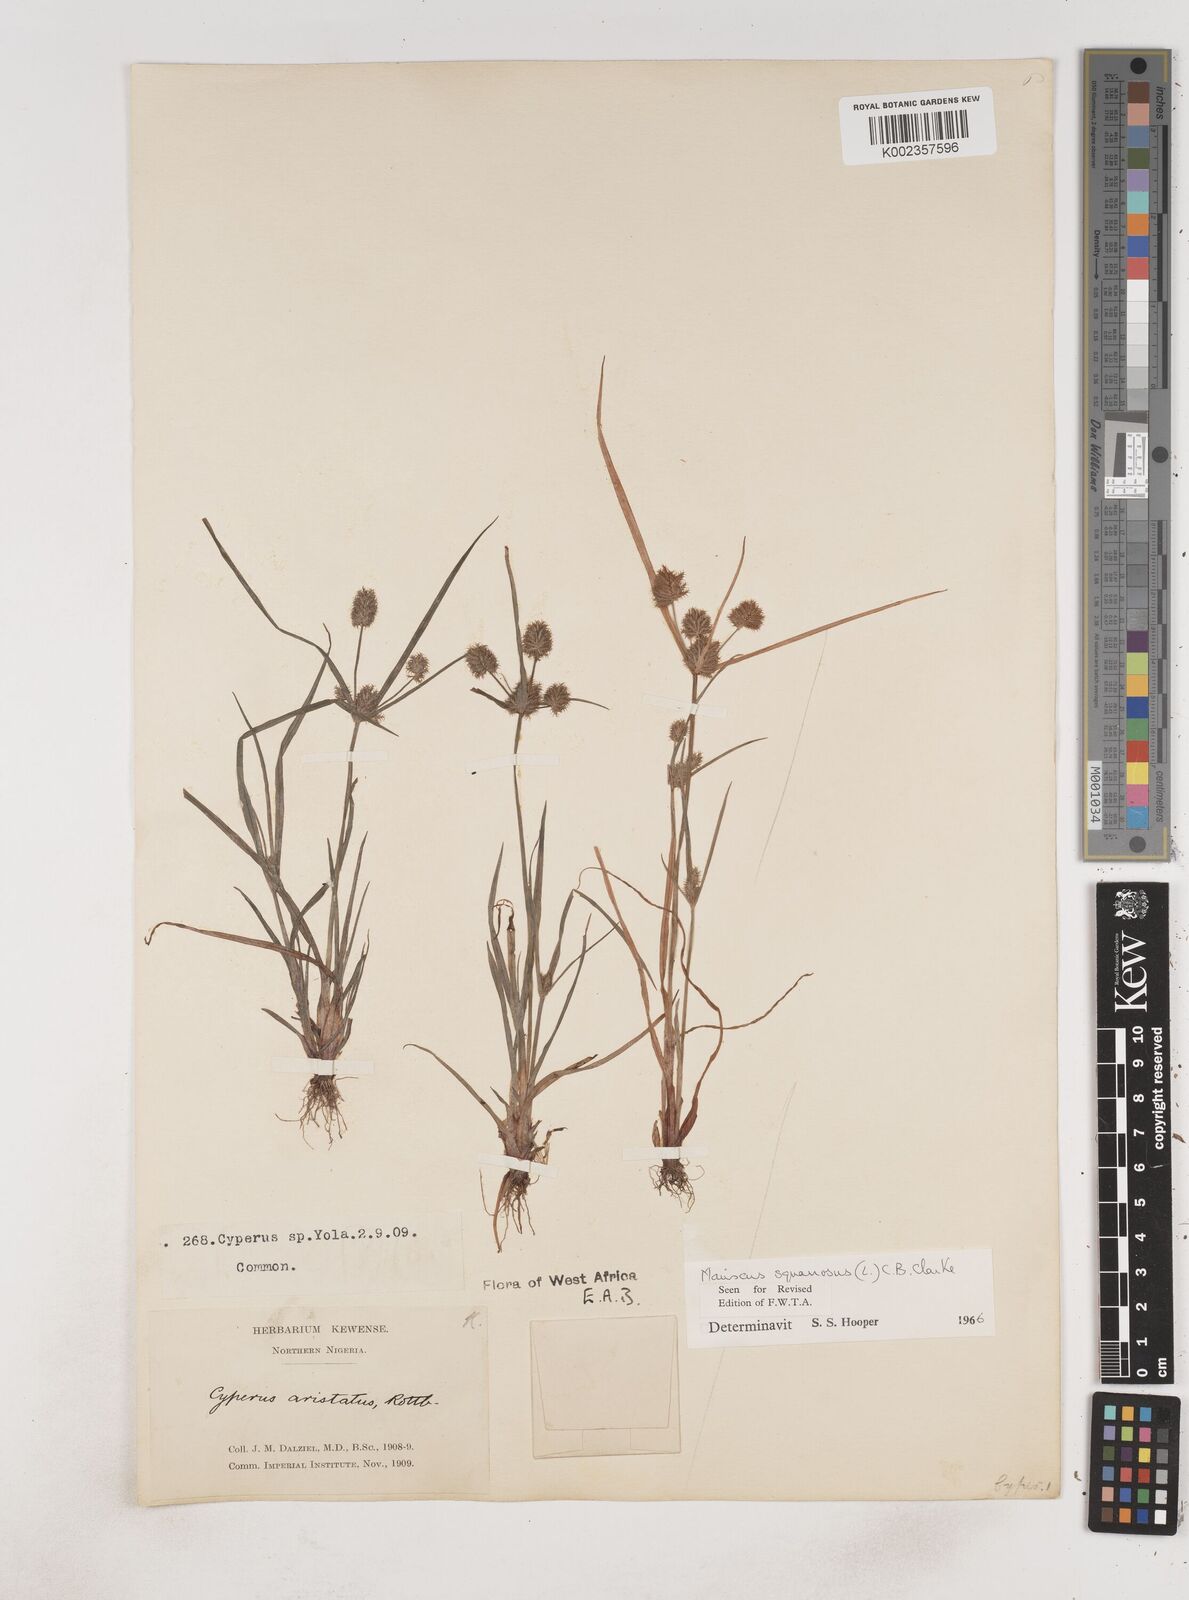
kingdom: Plantae
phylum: Tracheophyta
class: Liliopsida
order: Poales
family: Cyperaceae
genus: Cyperus
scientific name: Cyperus squarrosus
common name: Awned cyperus
